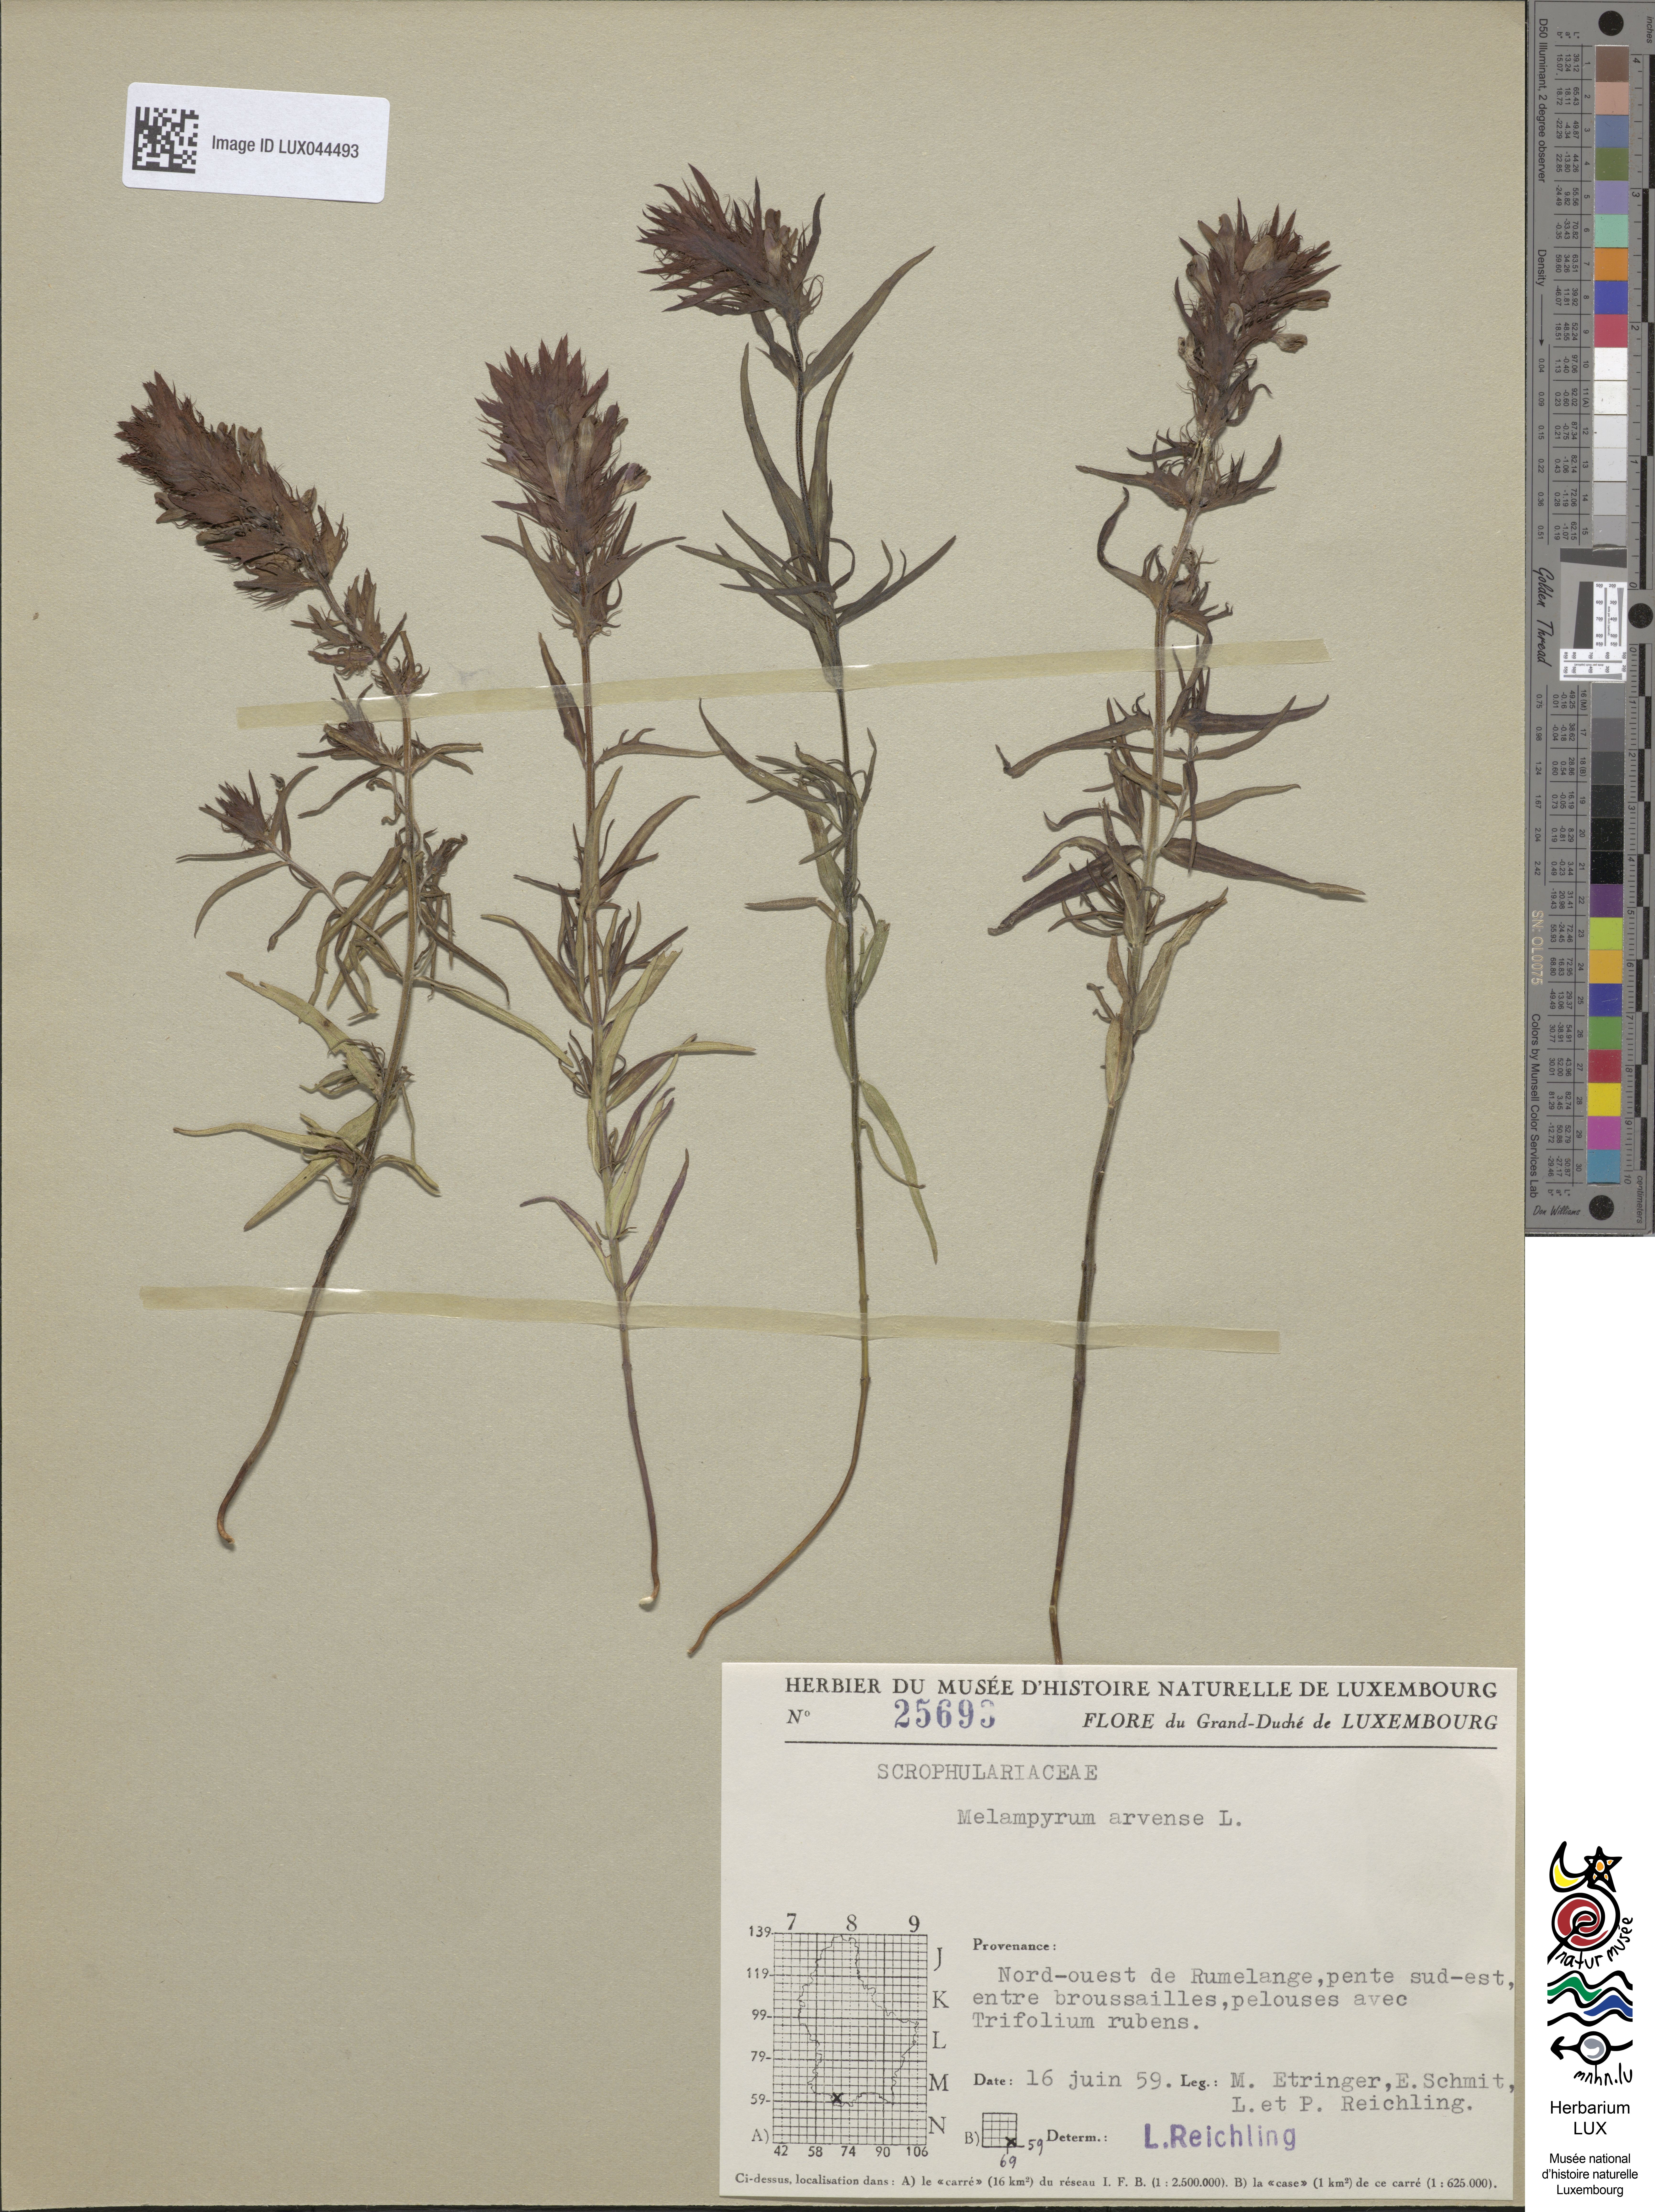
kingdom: Plantae
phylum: Tracheophyta
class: Magnoliopsida
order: Lamiales
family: Orobanchaceae
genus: Melampyrum
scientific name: Melampyrum arvense
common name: Field cow-wheat
